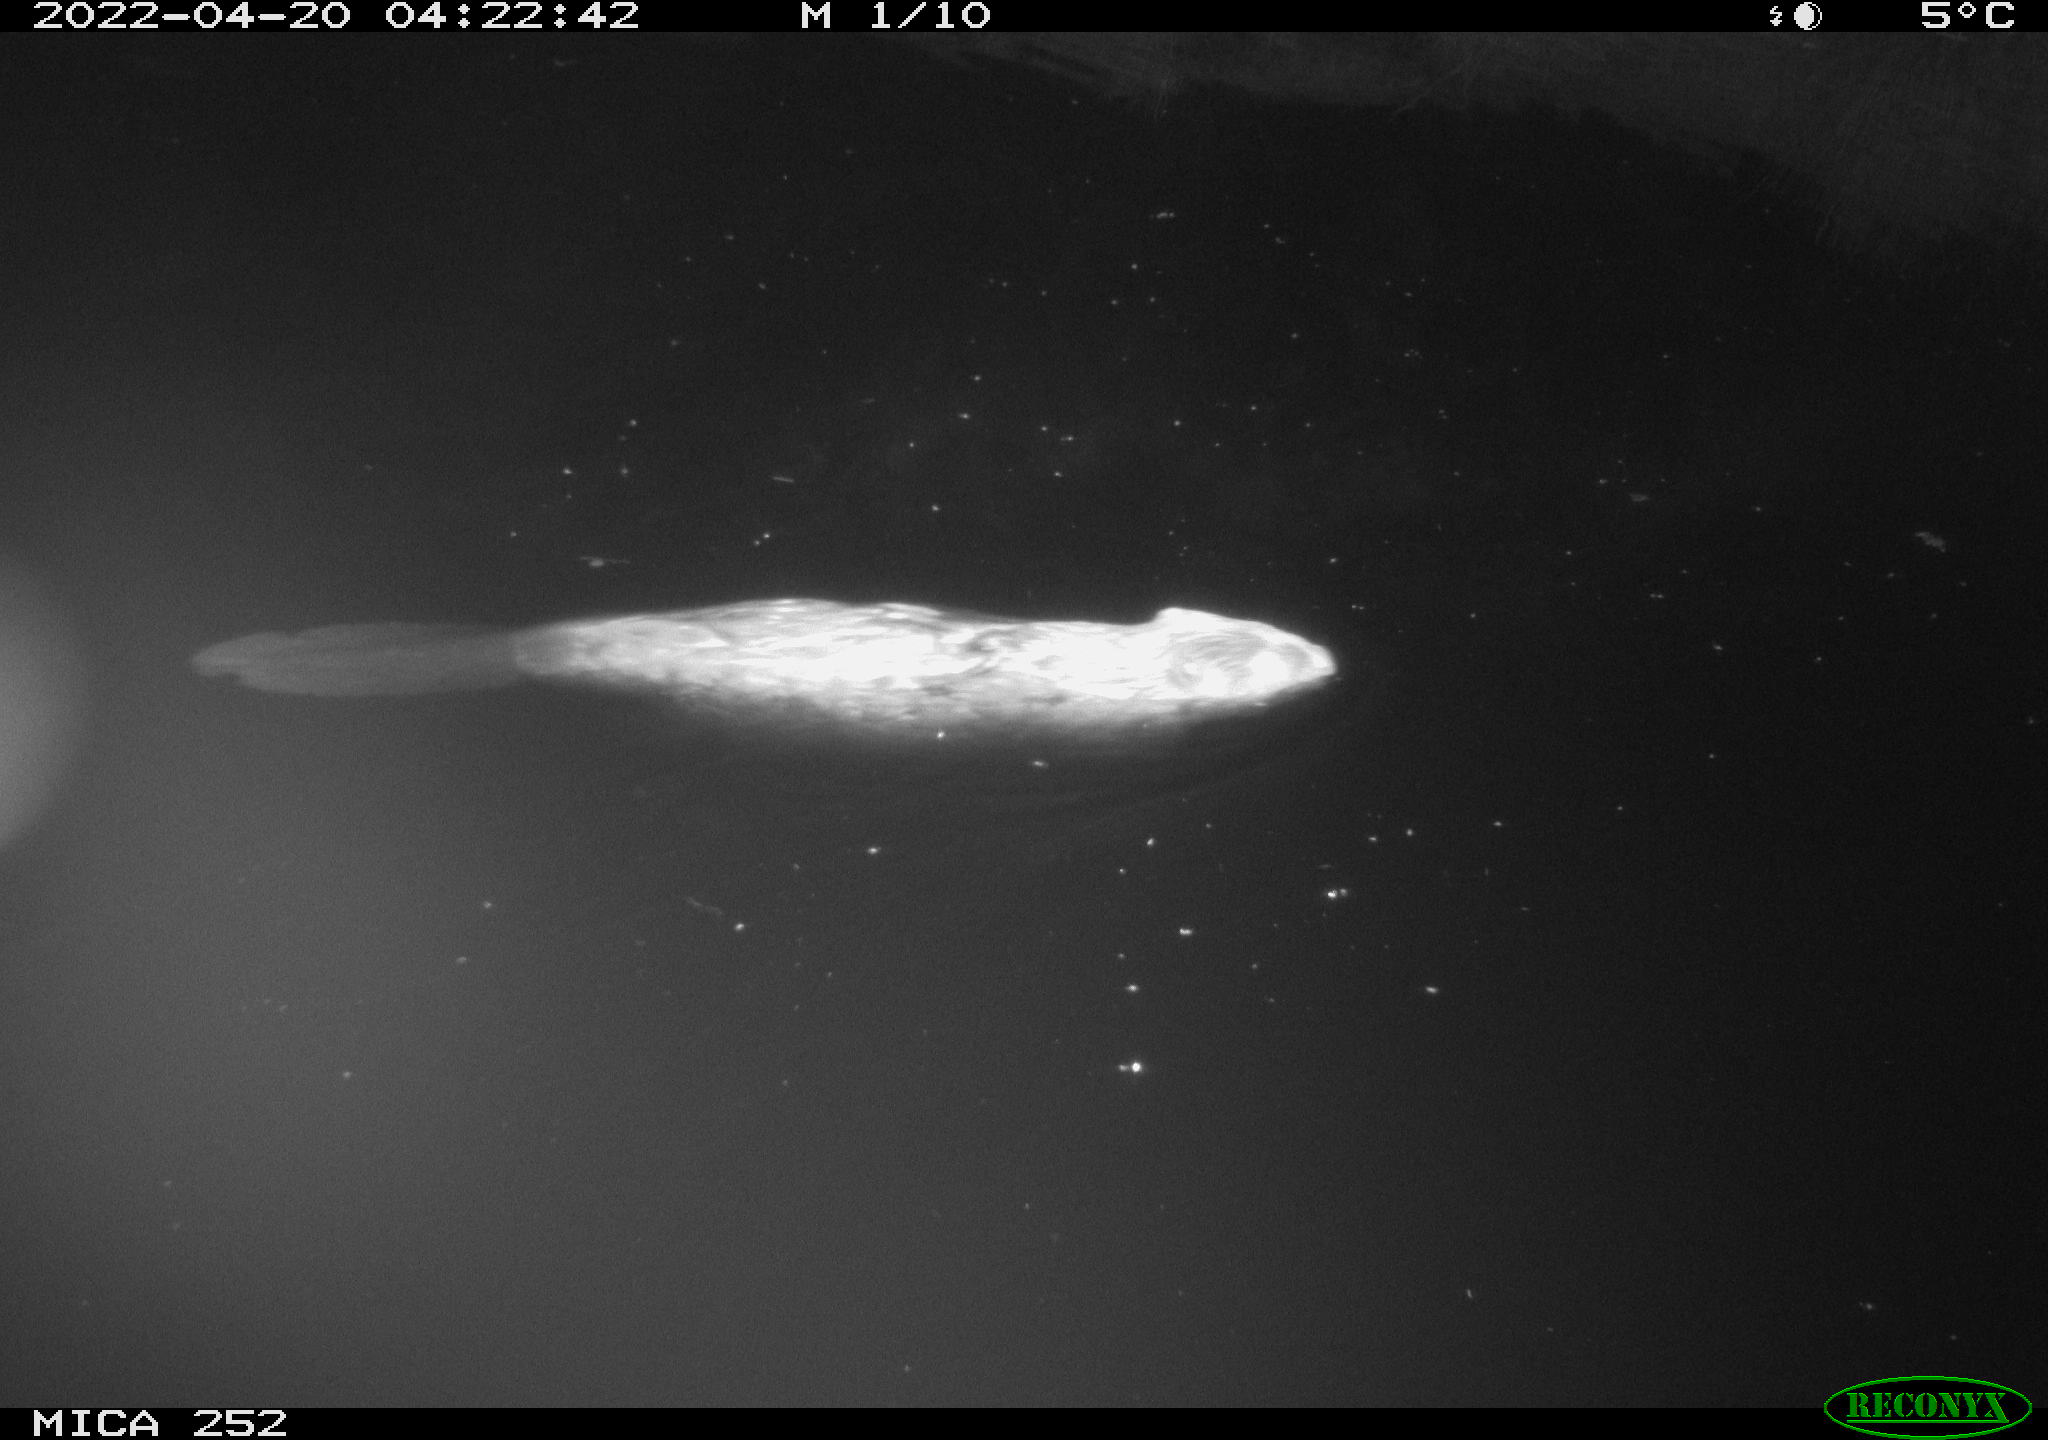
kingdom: Animalia
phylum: Chordata
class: Mammalia
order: Rodentia
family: Castoridae
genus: Castor
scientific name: Castor fiber
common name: Eurasian beaver
